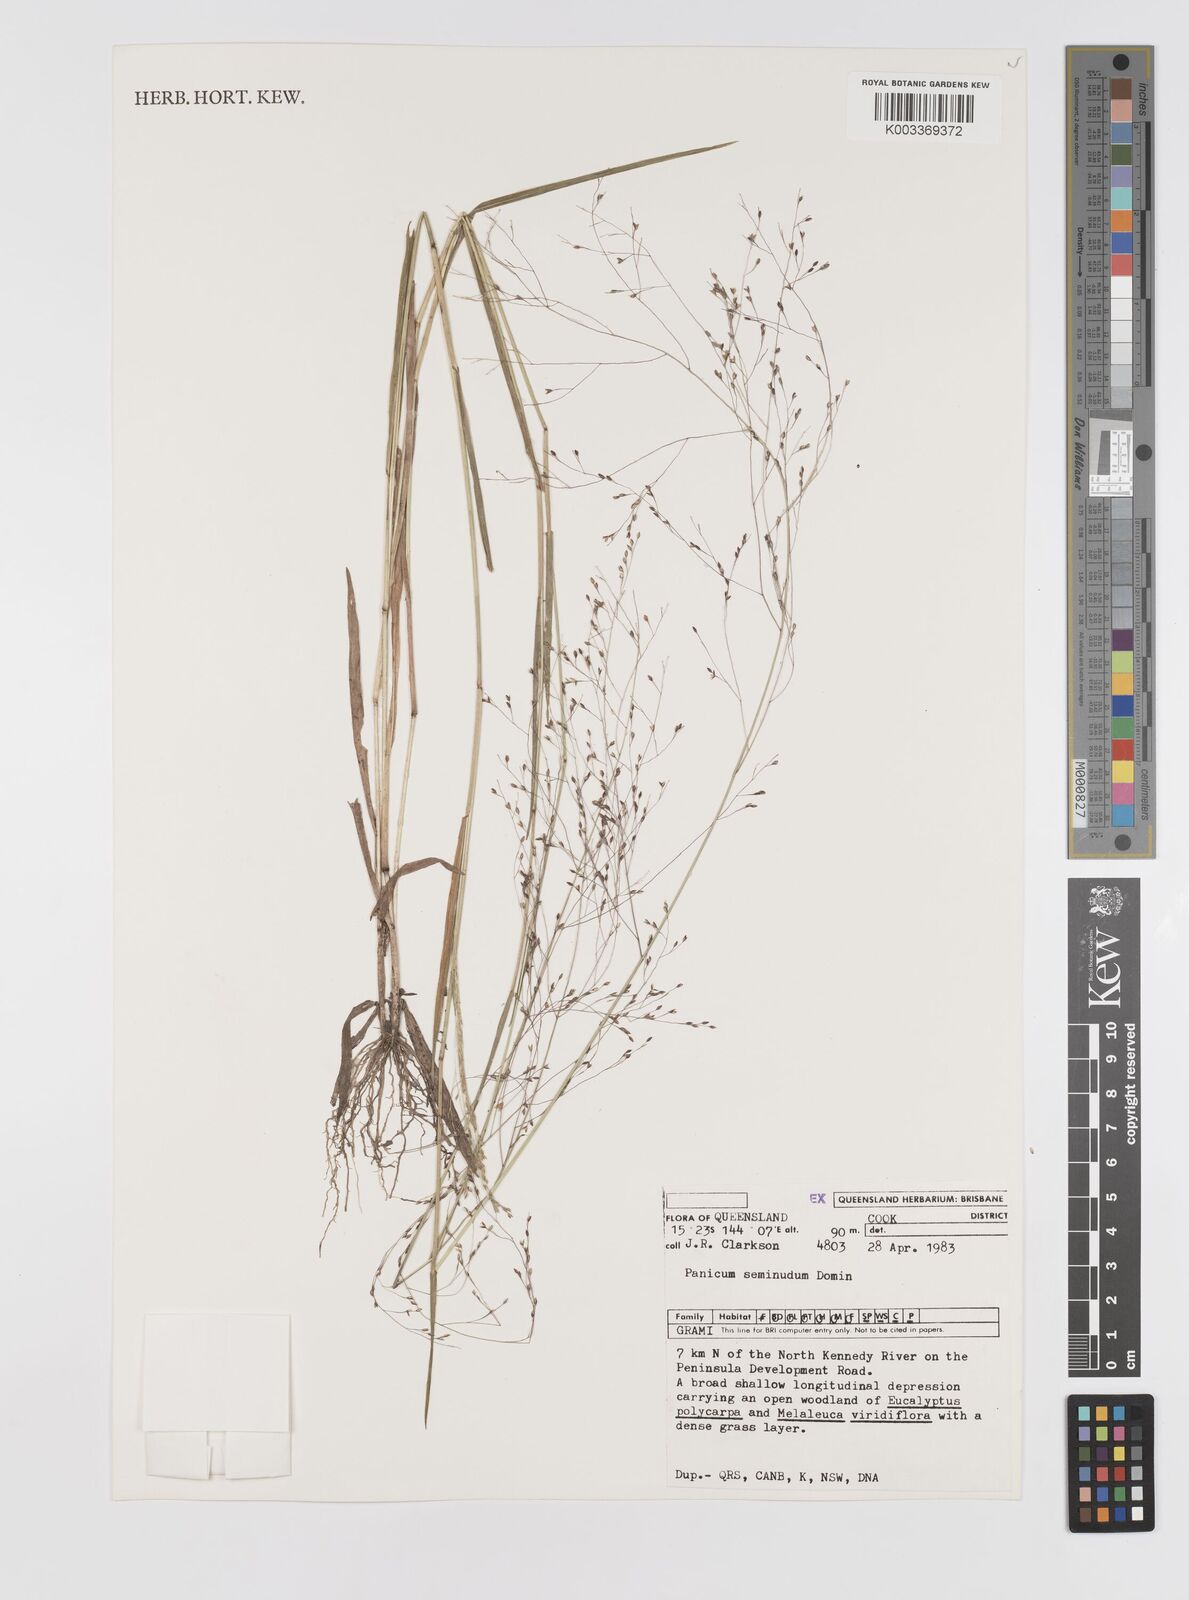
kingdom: Plantae
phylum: Tracheophyta
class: Liliopsida
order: Poales
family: Poaceae
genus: Panicum
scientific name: Panicum seminudum
